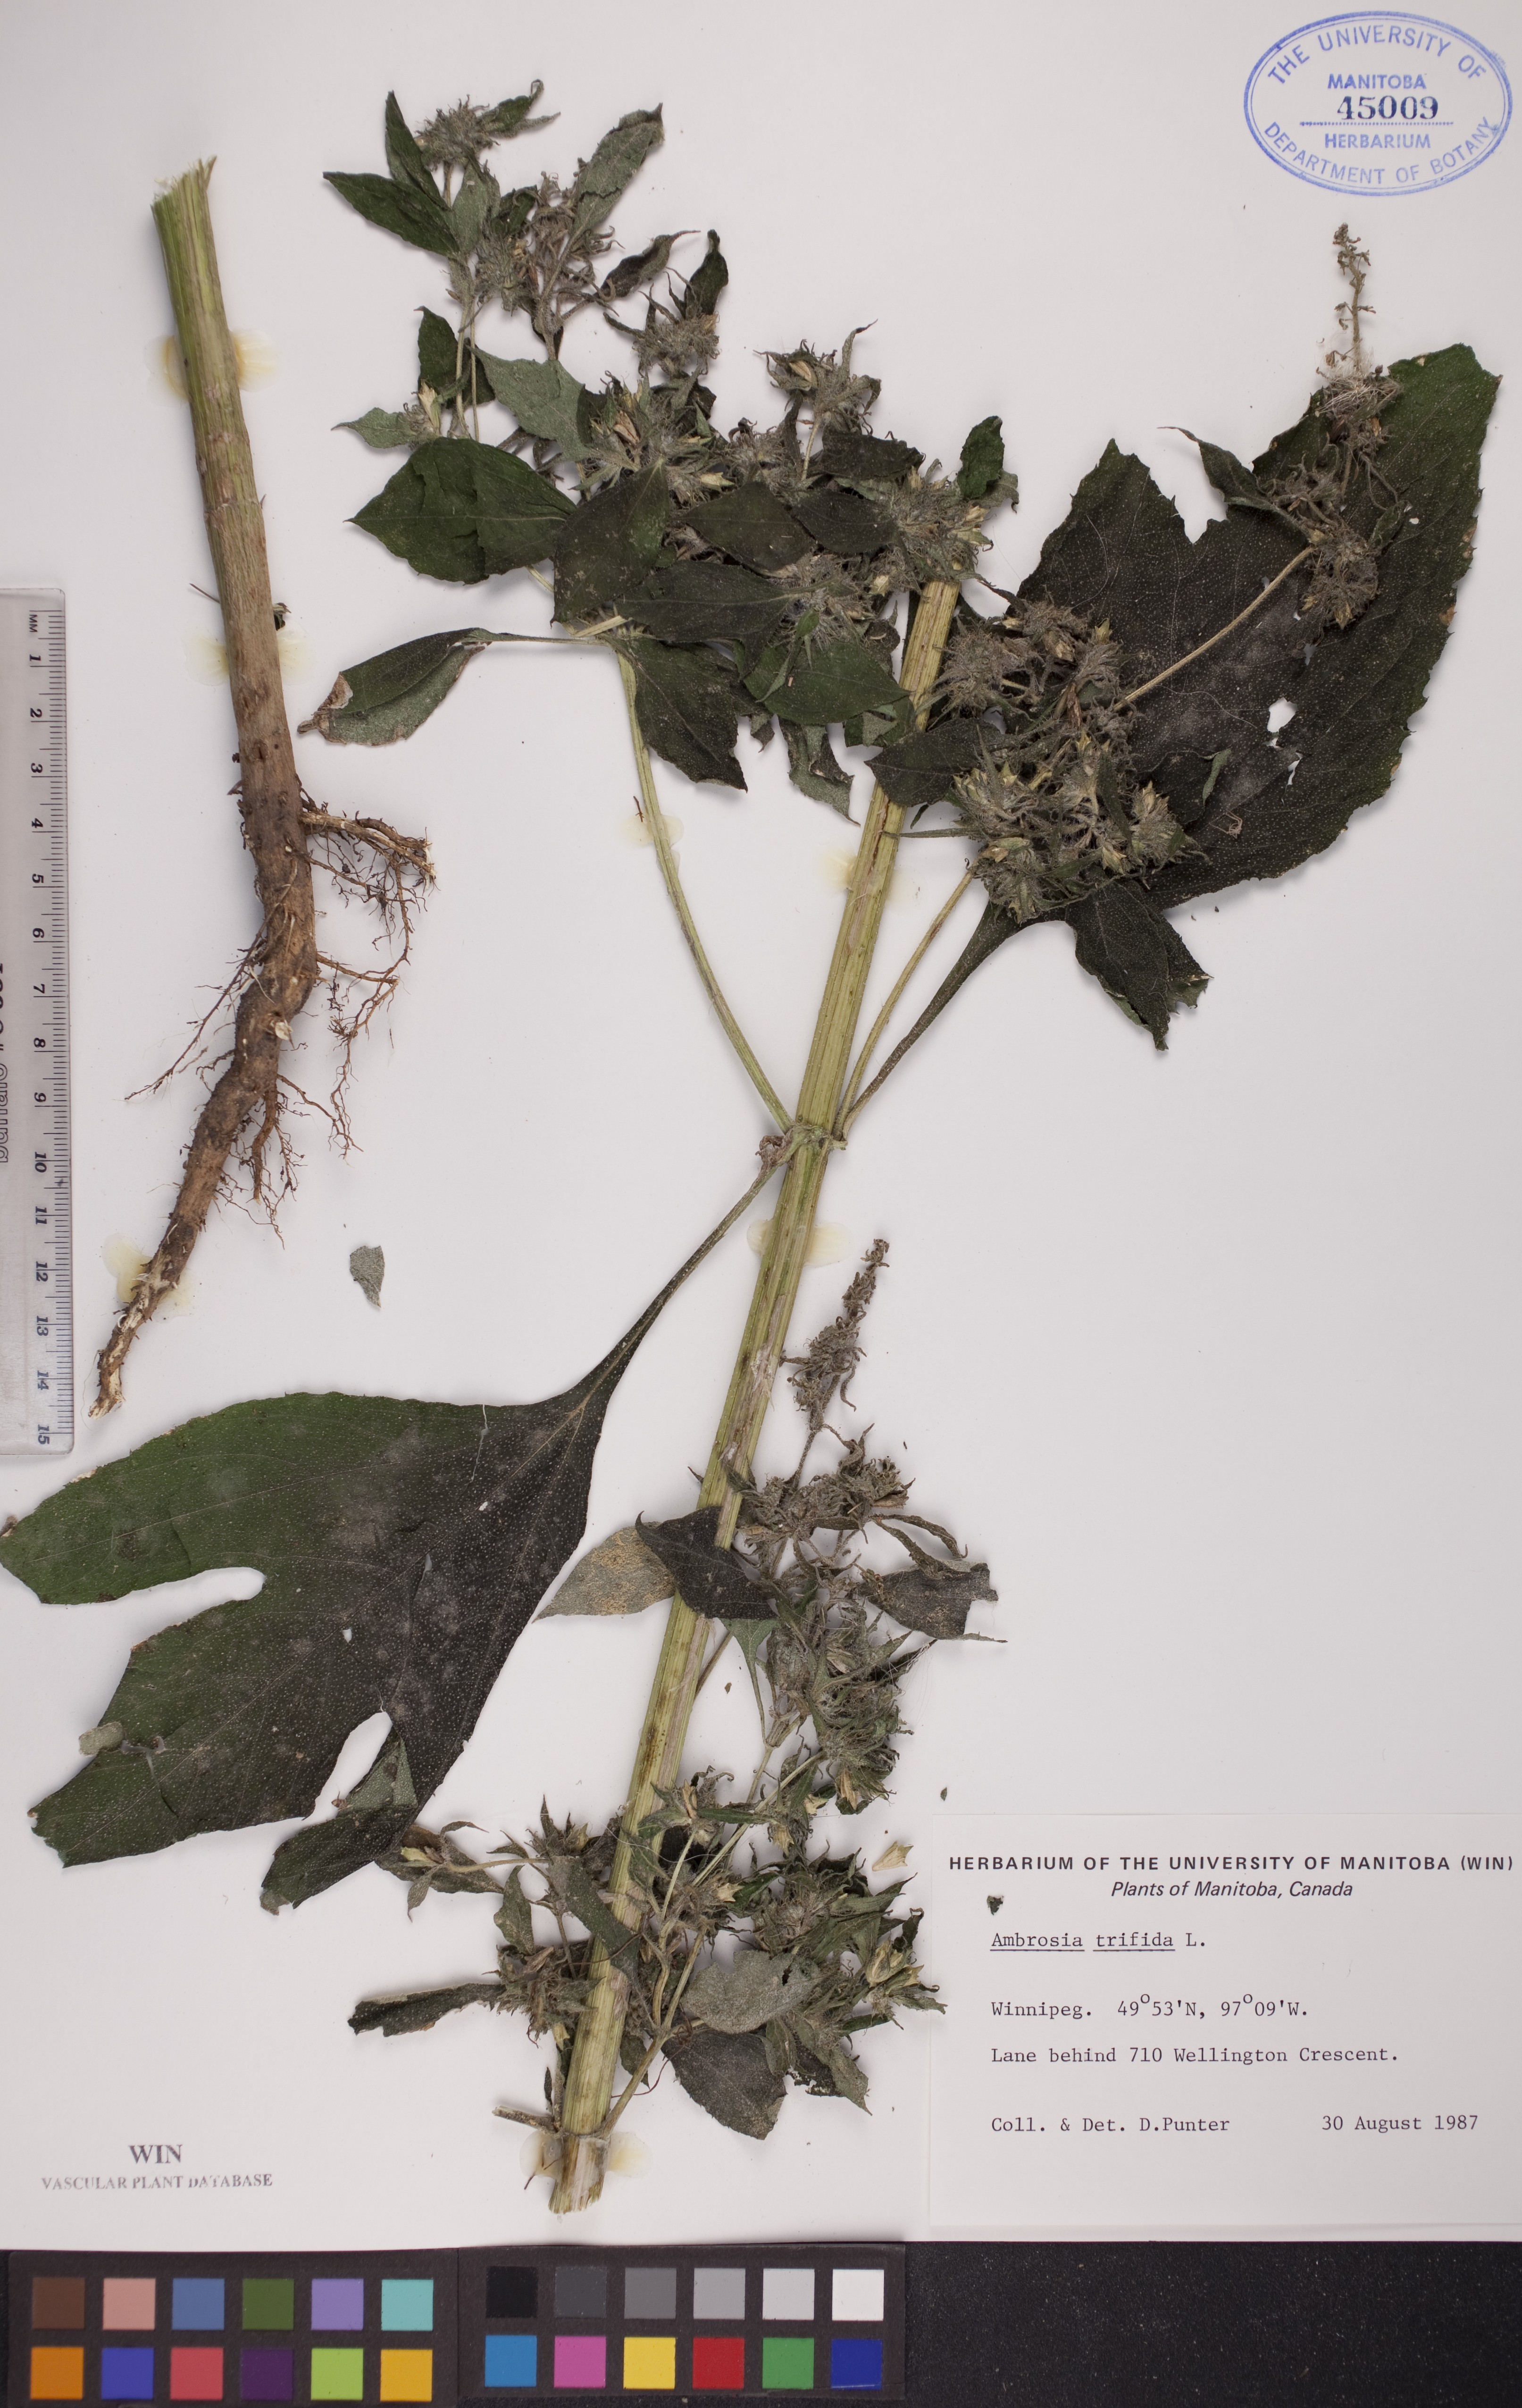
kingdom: Plantae
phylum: Tracheophyta
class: Magnoliopsida
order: Asterales
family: Asteraceae
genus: Ambrosia
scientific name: Ambrosia trifida
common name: Giant ragweed
